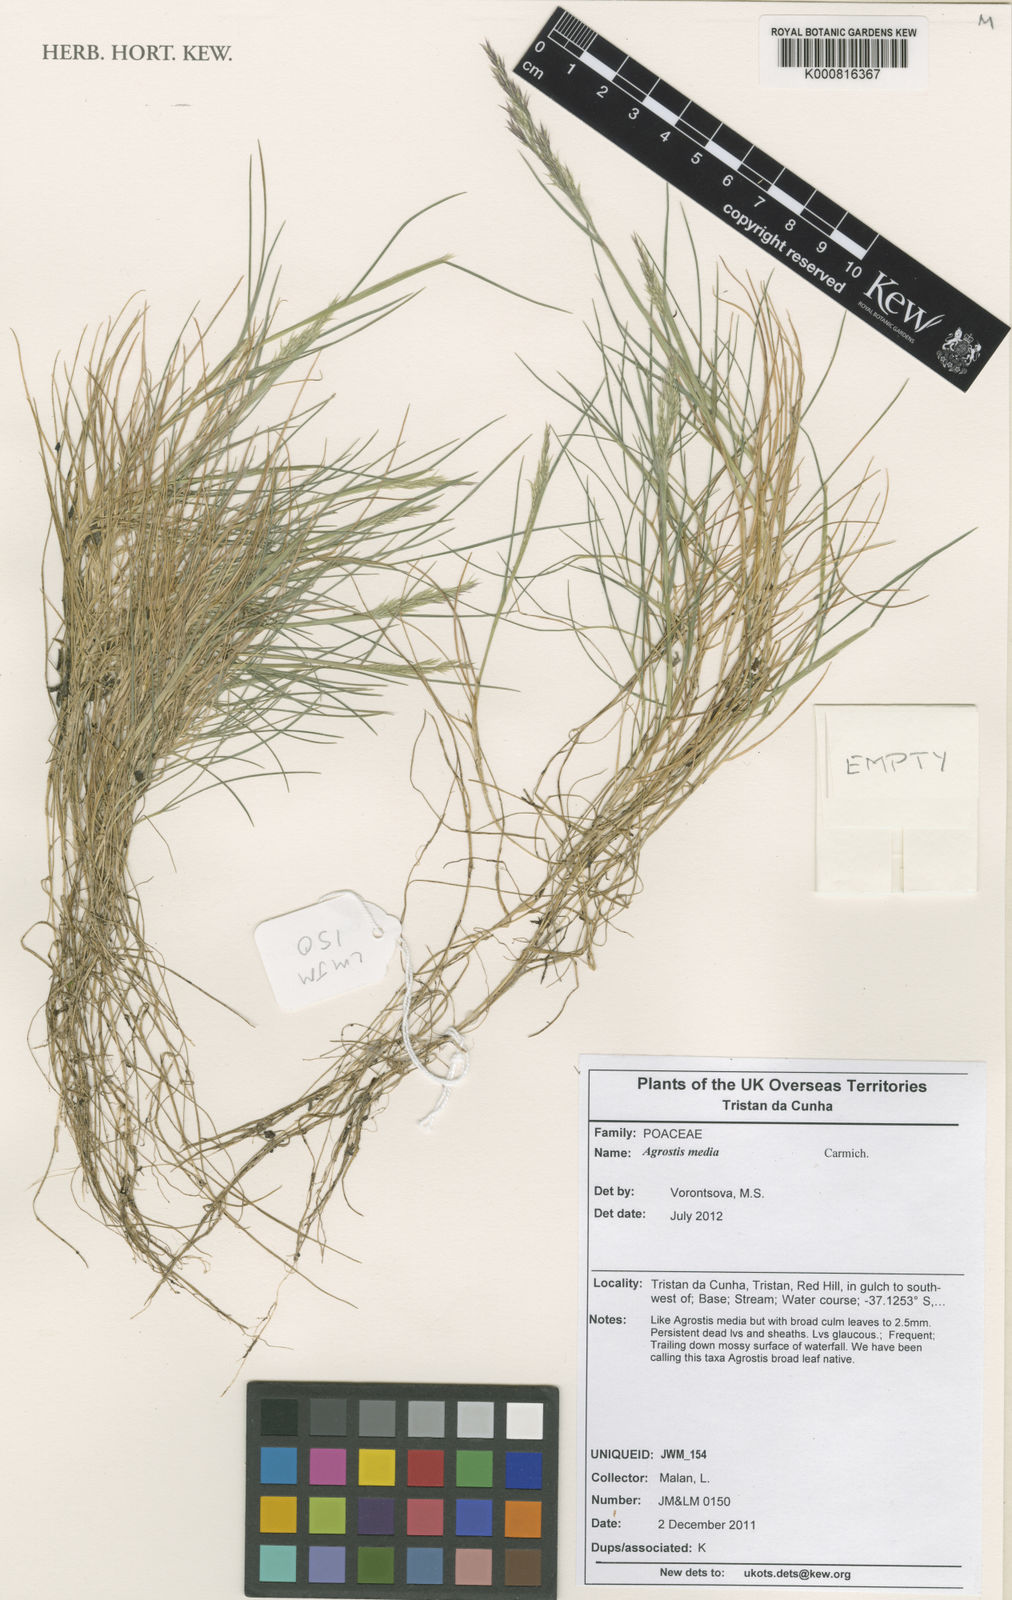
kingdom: Plantae
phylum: Tracheophyta
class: Liliopsida
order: Poales
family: Poaceae
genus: Agrostis
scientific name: Agrostis media
